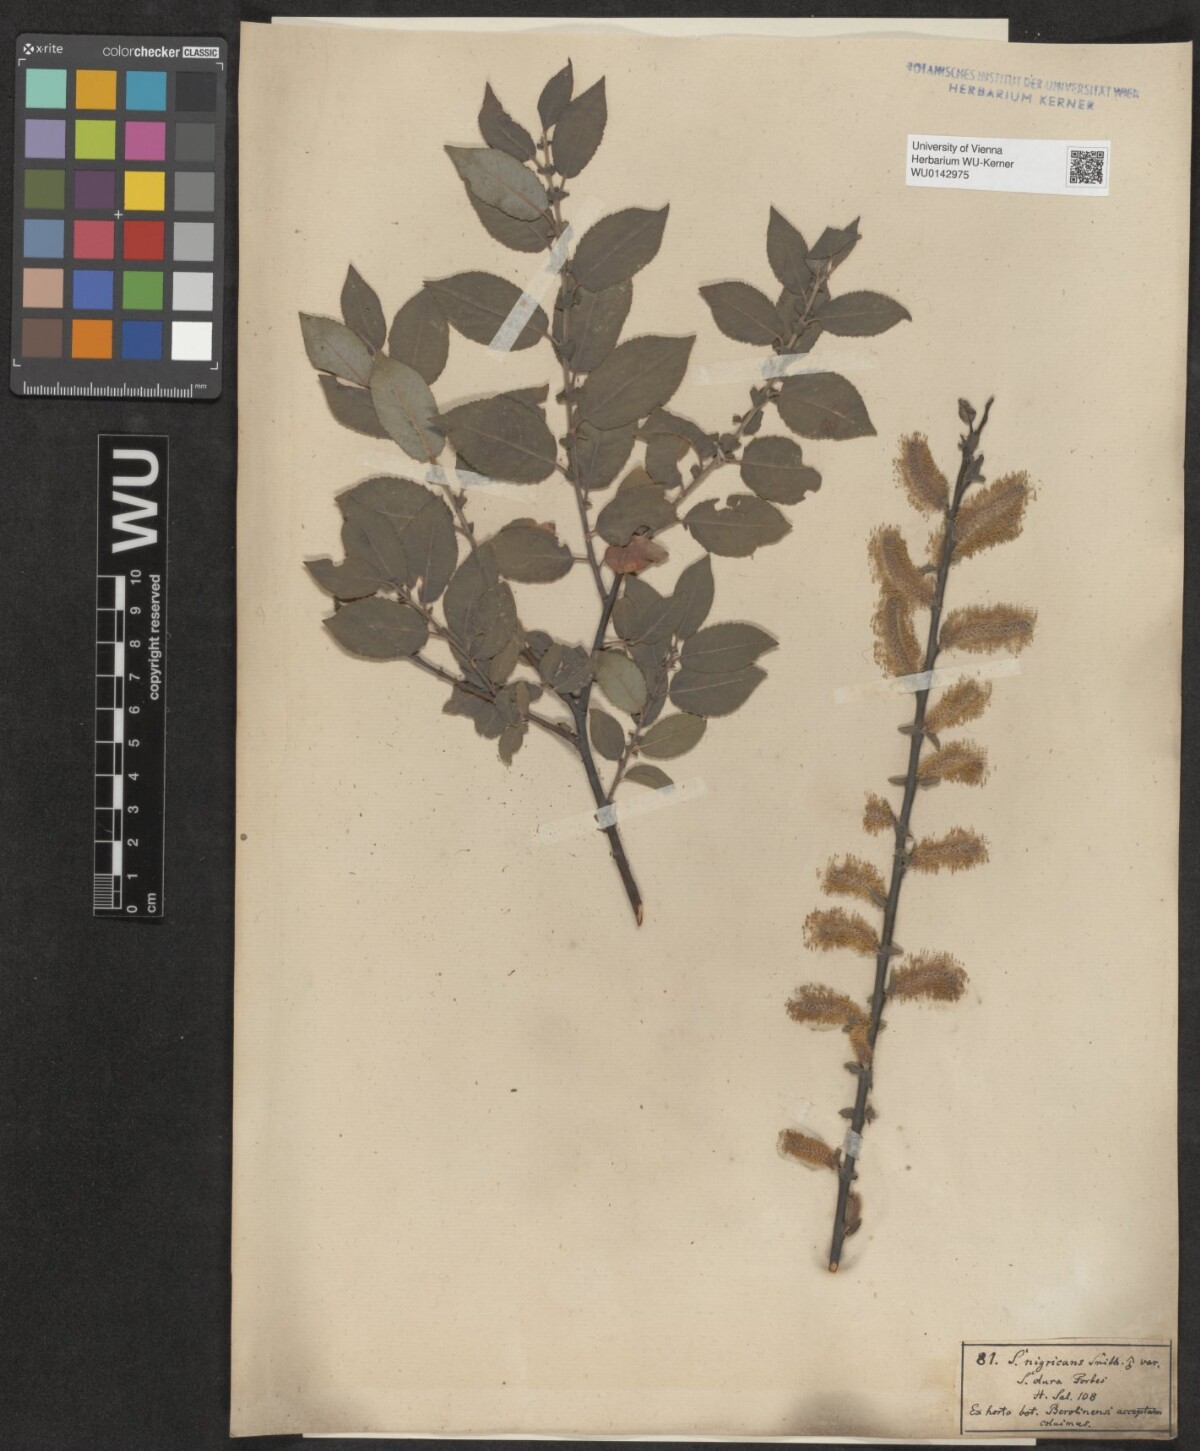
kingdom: Plantae
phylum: Tracheophyta
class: Magnoliopsida
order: Malpighiales
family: Salicaceae
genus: Salix
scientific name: Salix myrsinifolia
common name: Dark-leaved willow
